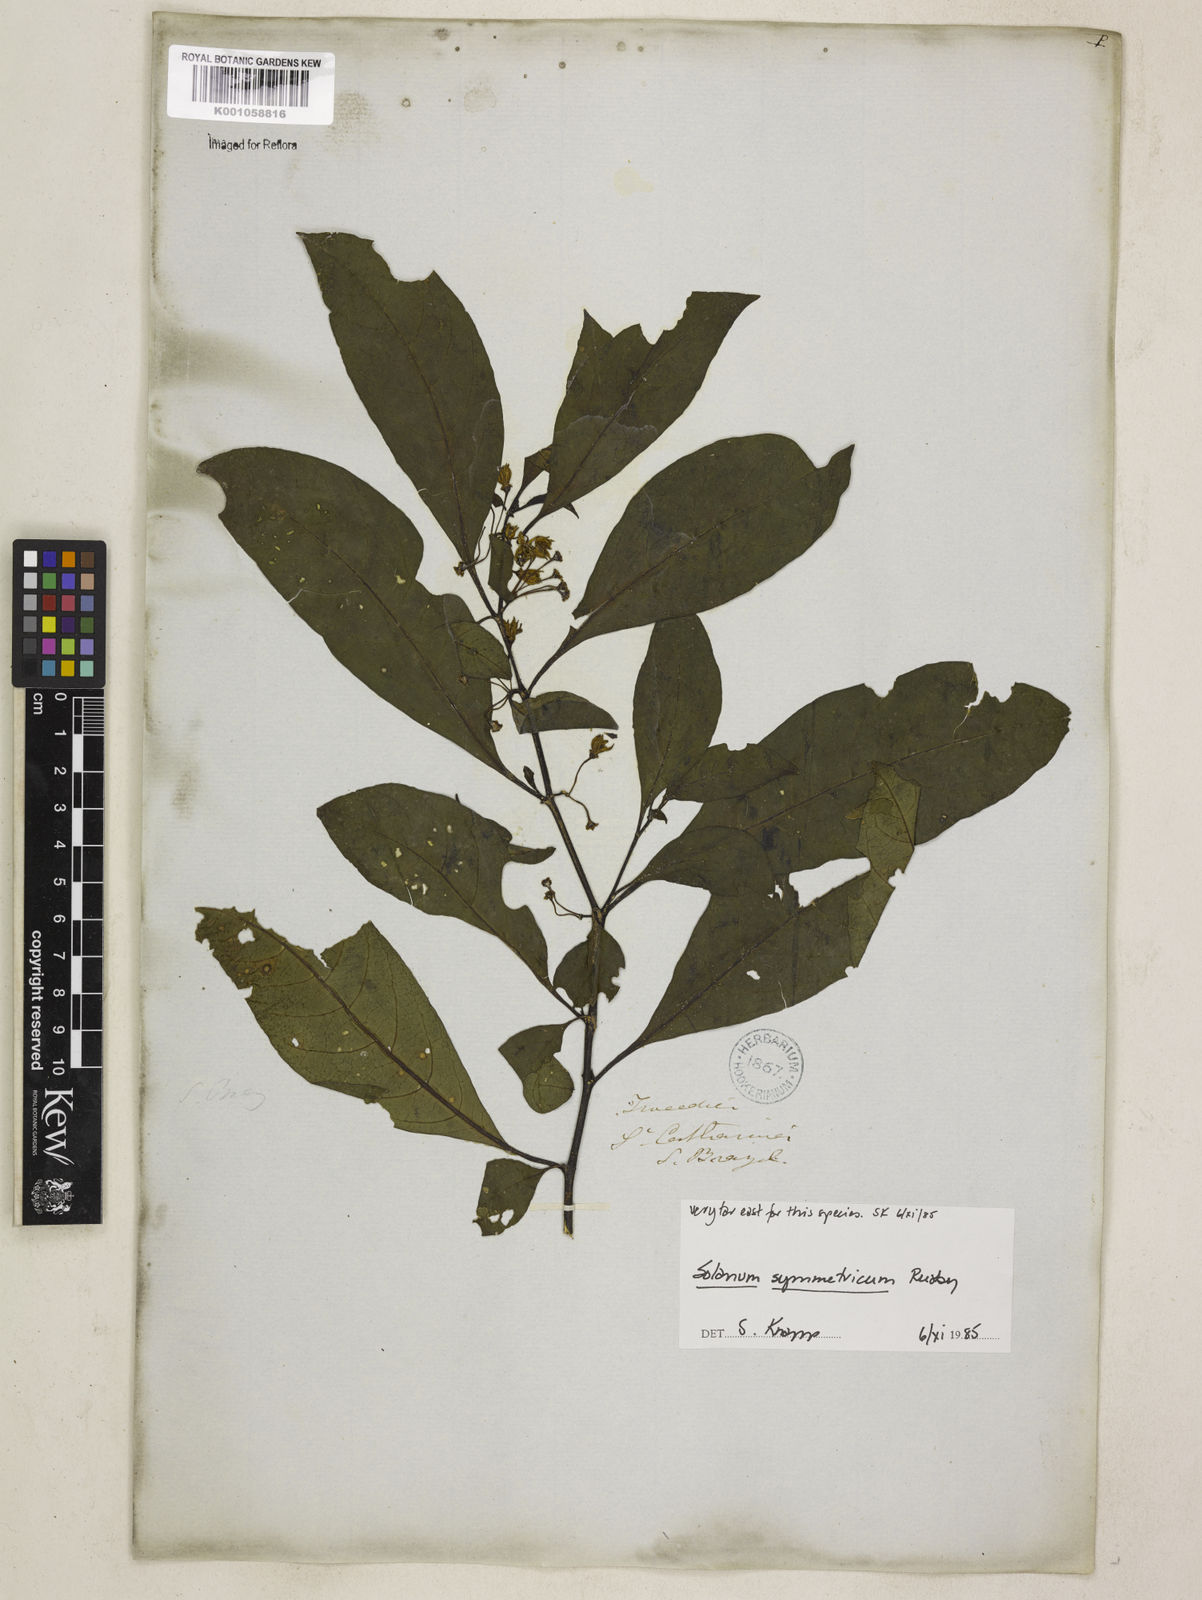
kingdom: Plantae
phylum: Tracheophyta
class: Magnoliopsida
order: Solanales
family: Solanaceae
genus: Solanum
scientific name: Solanum symmetricum
